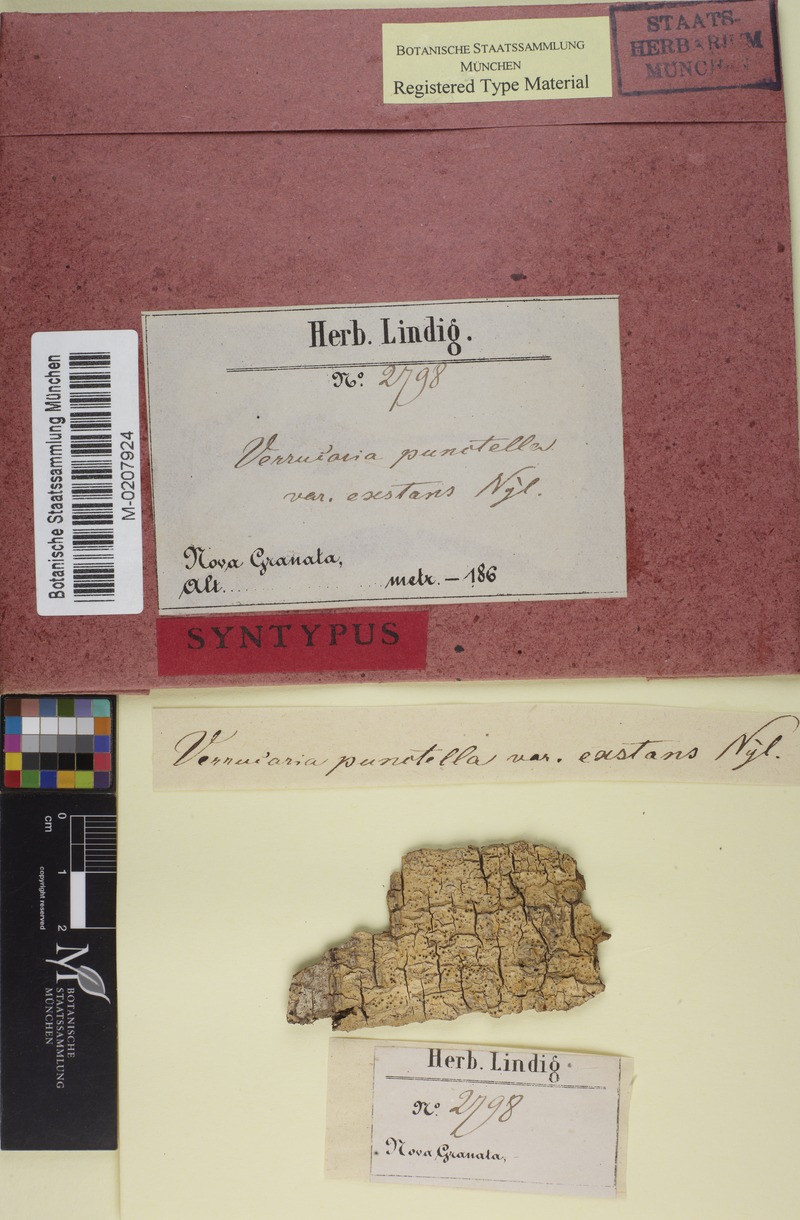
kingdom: Fungi
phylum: Ascomycota
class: Eurotiomycetes
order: Pyrenulales
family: Pyrenulaceae
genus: Pyrenula
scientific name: Pyrenula pinguis
